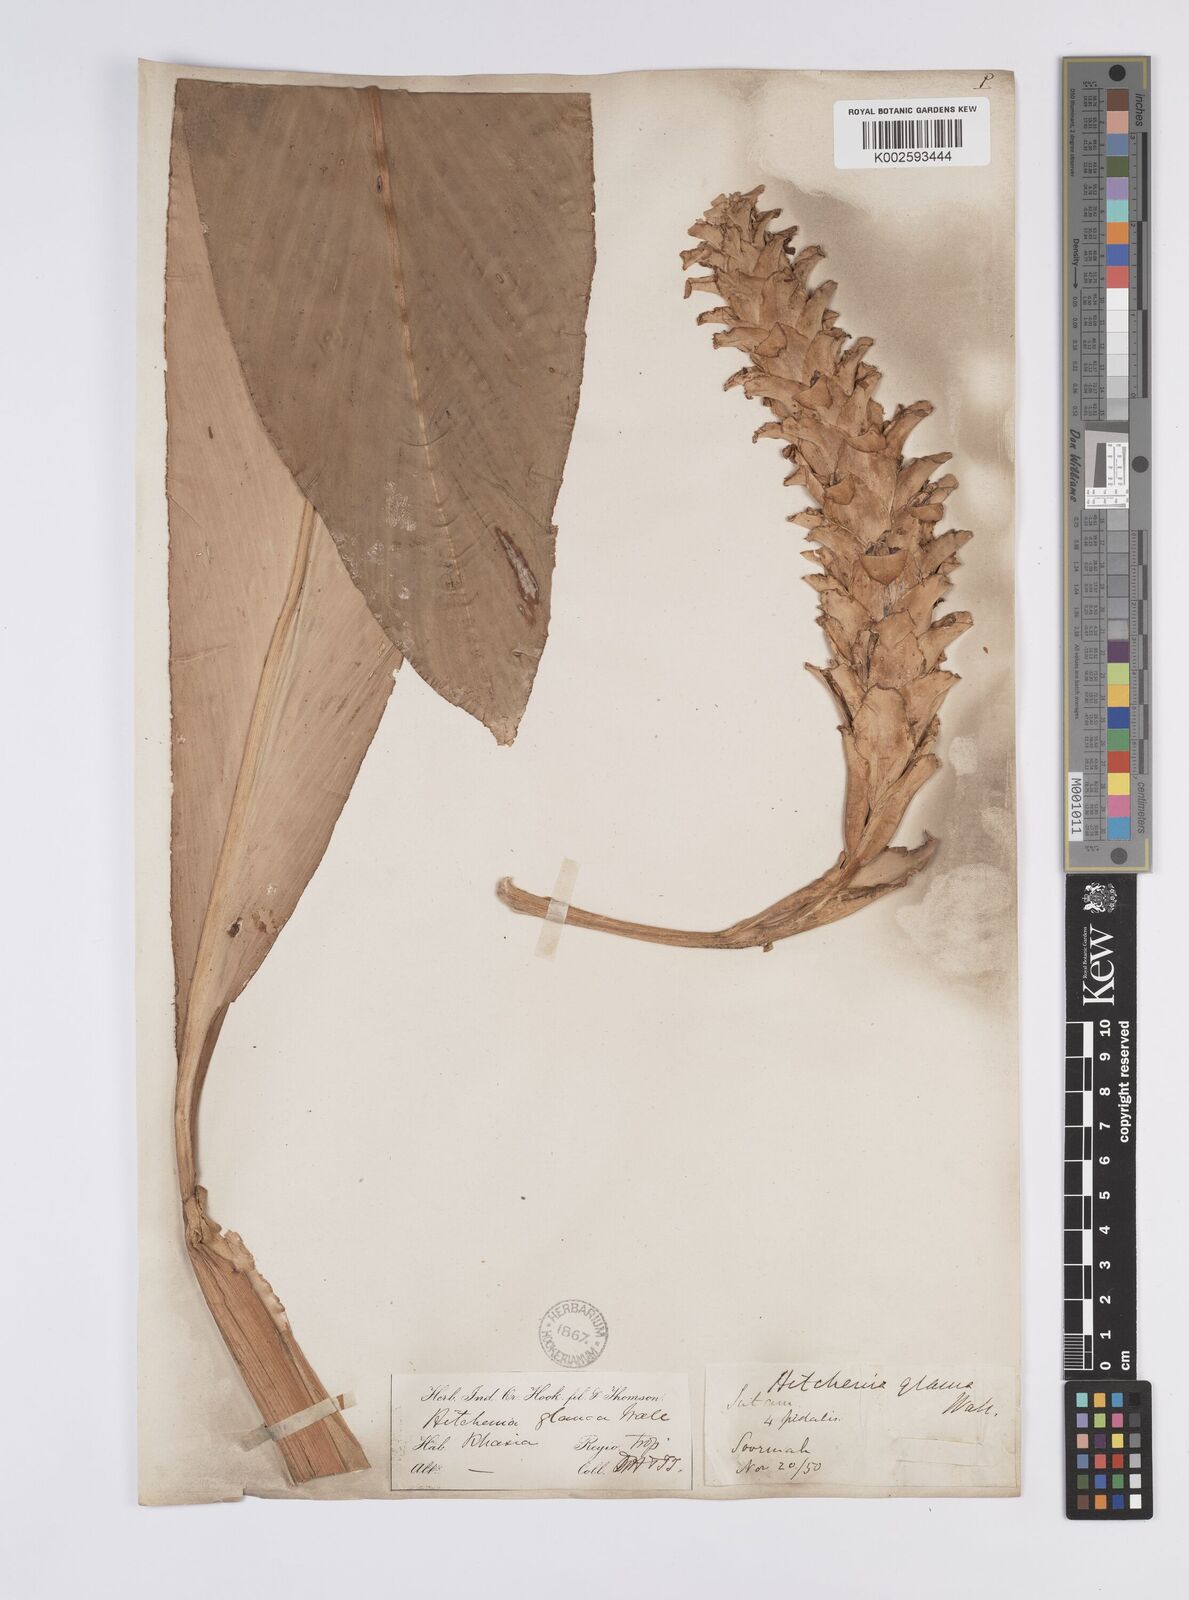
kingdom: Plantae
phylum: Tracheophyta
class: Liliopsida
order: Zingiberales
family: Zingiberaceae
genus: Larsenianthus
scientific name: Larsenianthus careyanus
